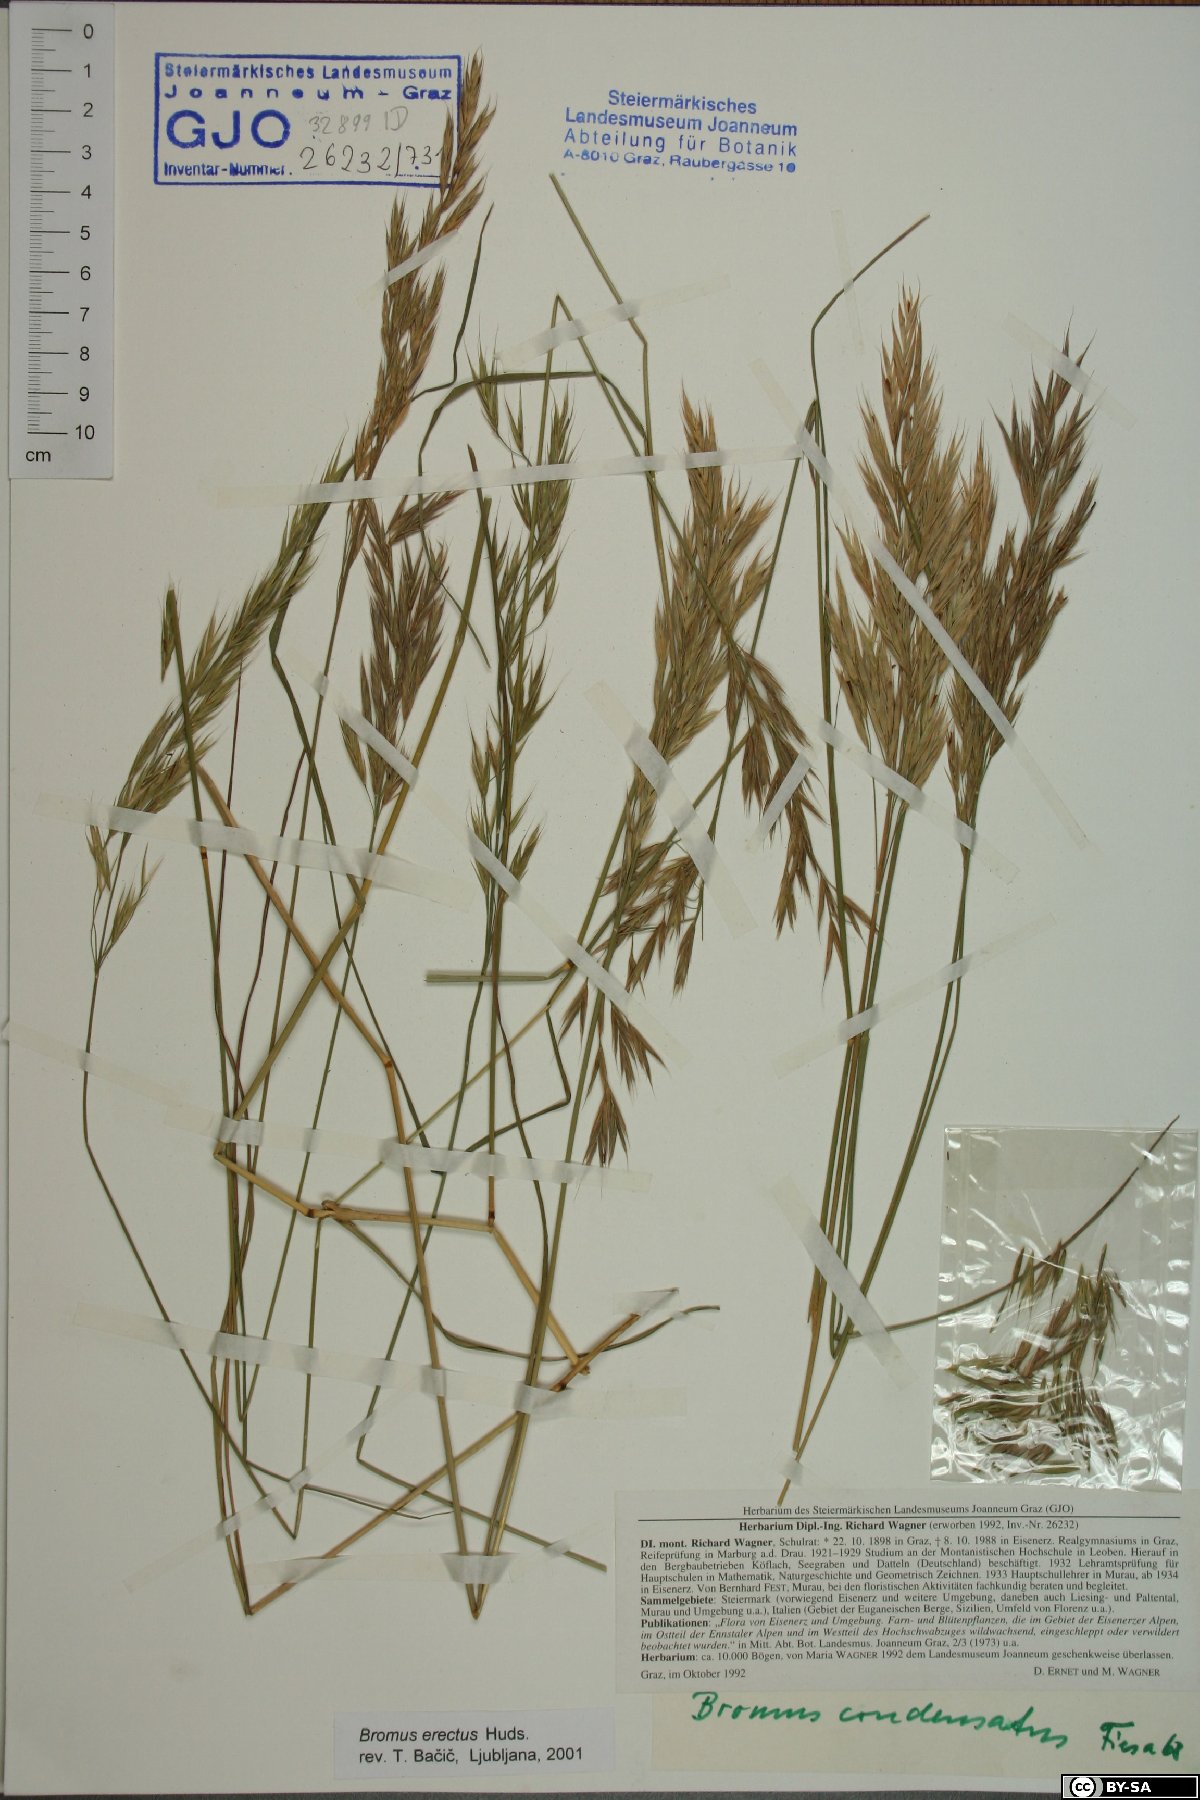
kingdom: Plantae
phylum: Tracheophyta
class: Liliopsida
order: Poales
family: Poaceae
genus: Bromus
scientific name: Bromus erectus
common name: Erect brome
